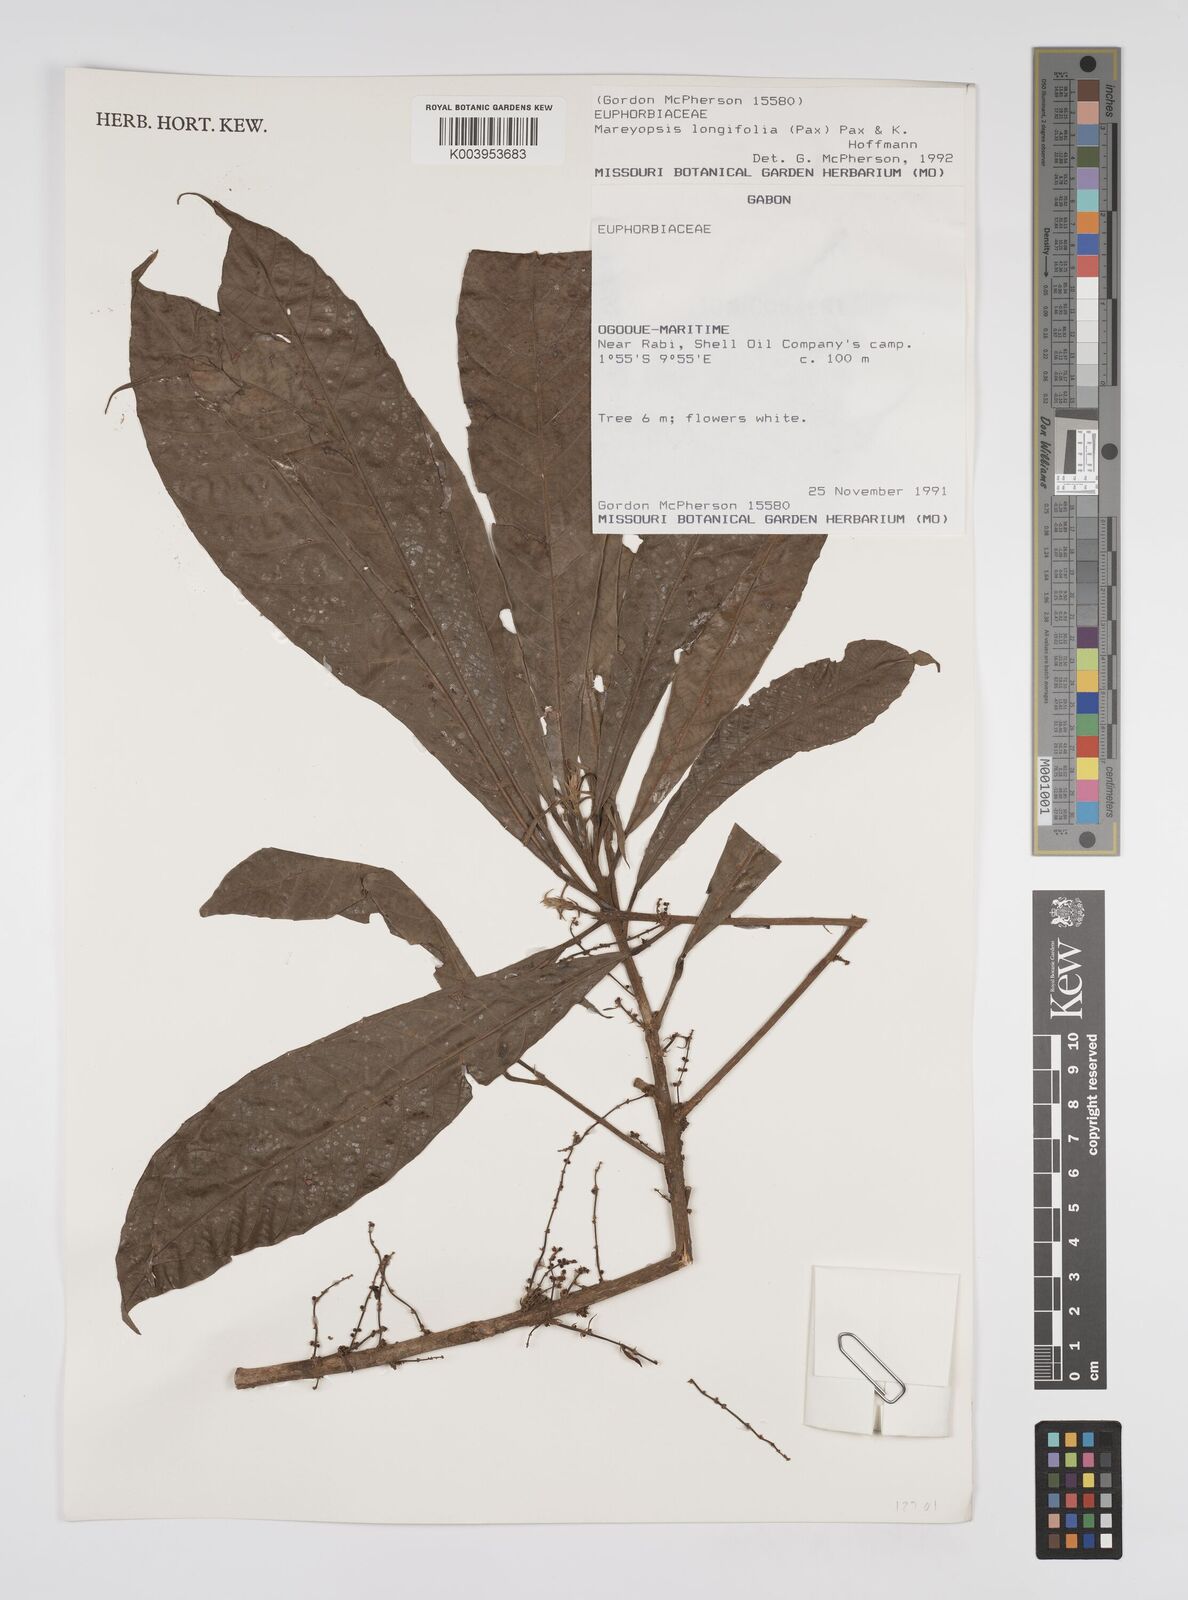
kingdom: Plantae
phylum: Tracheophyta
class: Magnoliopsida
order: Malpighiales
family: Euphorbiaceae
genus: Mareyopsis
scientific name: Mareyopsis longifolia
